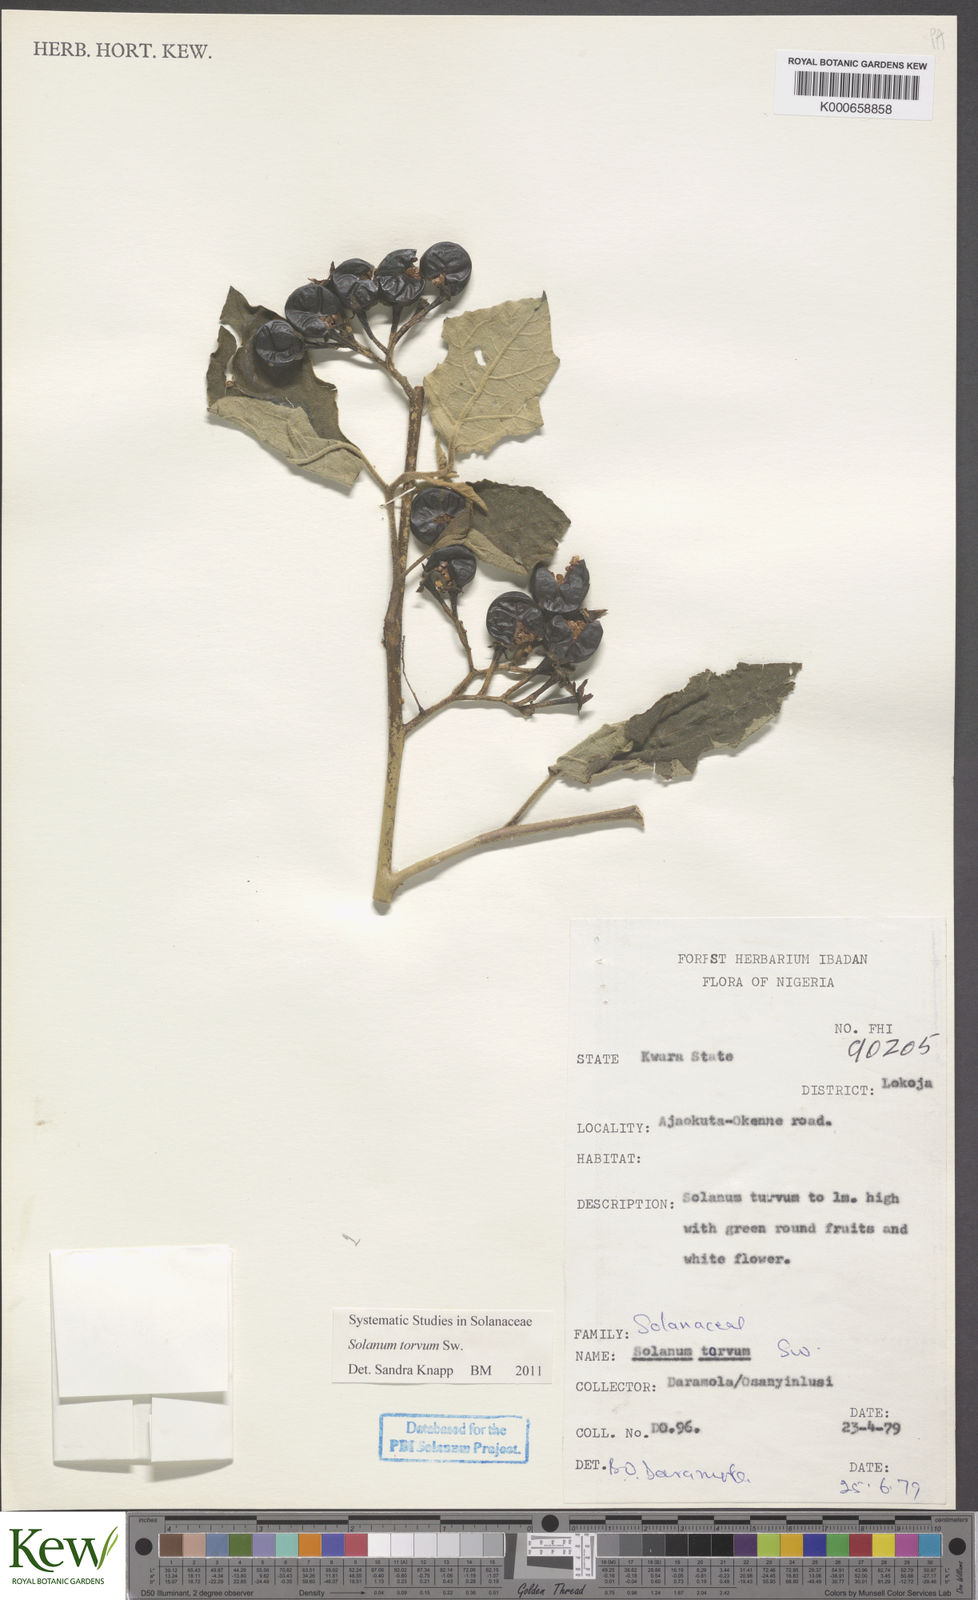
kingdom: Plantae
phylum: Tracheophyta
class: Magnoliopsida
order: Solanales
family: Solanaceae
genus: Solanum
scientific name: Solanum torvum
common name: Turkey berry
